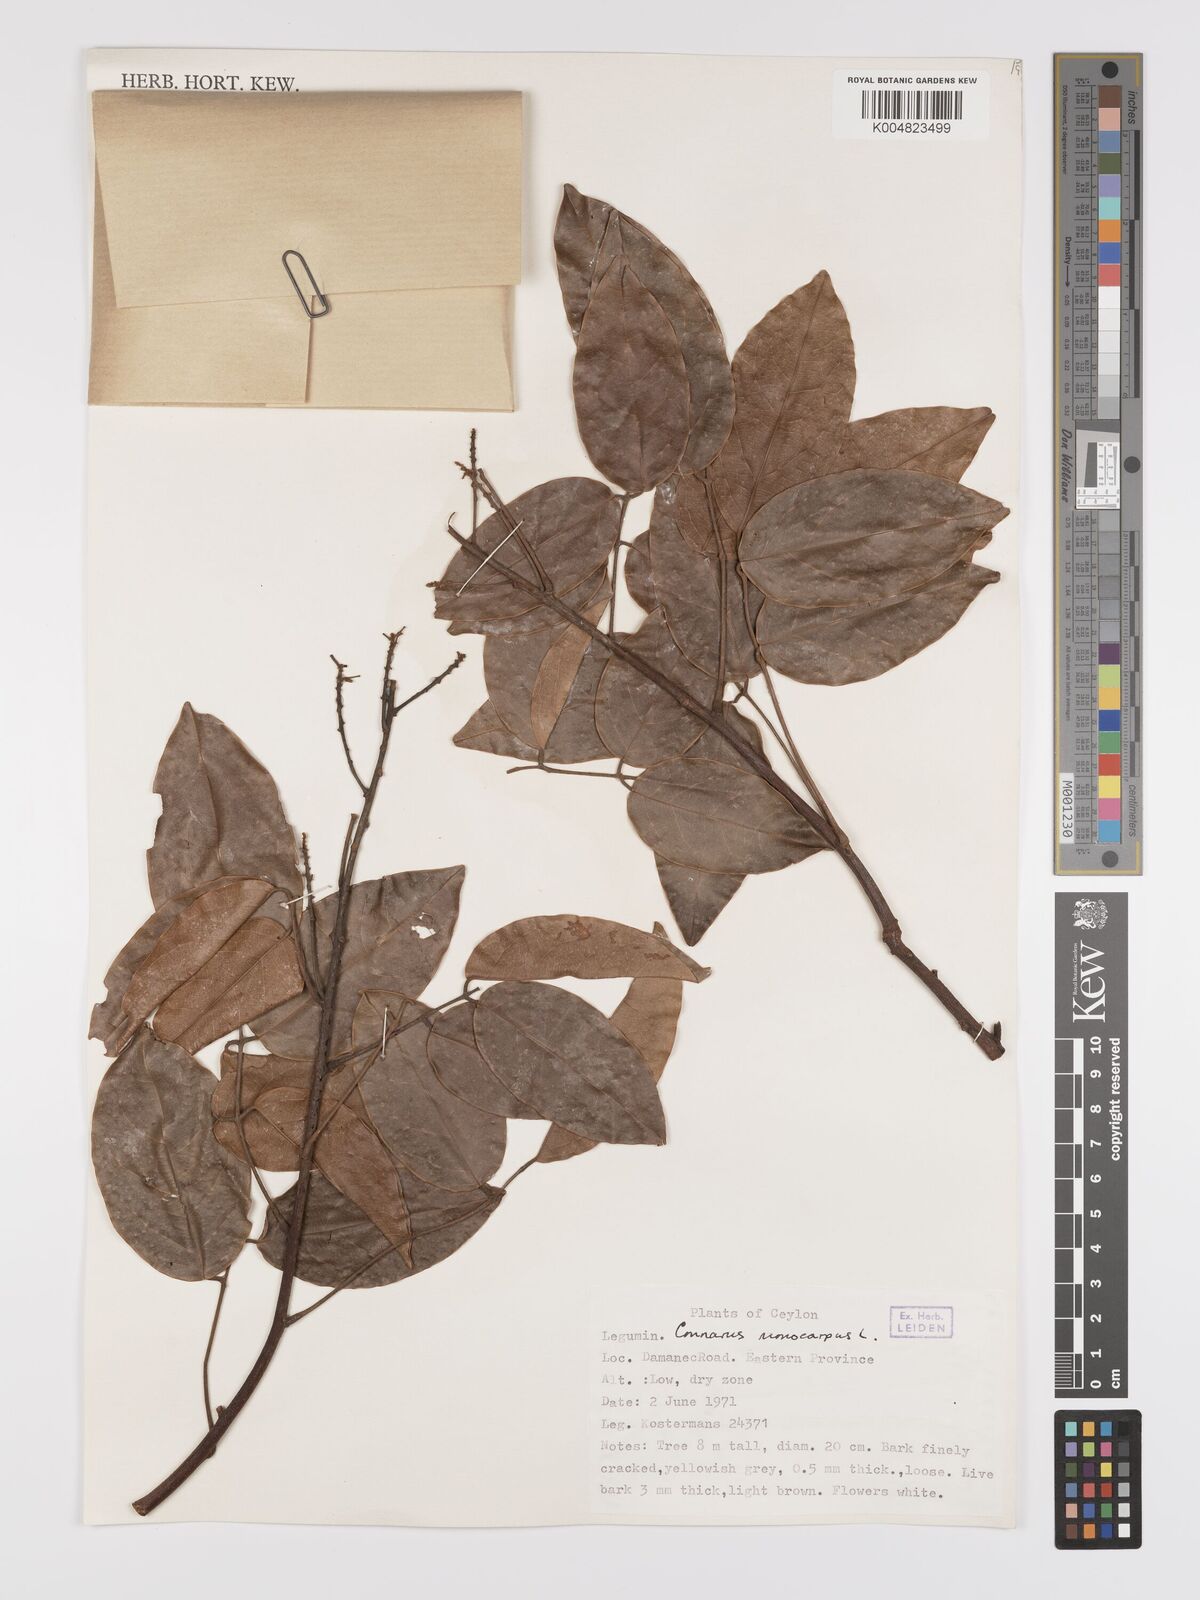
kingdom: Plantae
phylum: Tracheophyta
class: Magnoliopsida
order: Oxalidales
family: Connaraceae
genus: Connarus
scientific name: Connarus semidecandrus
